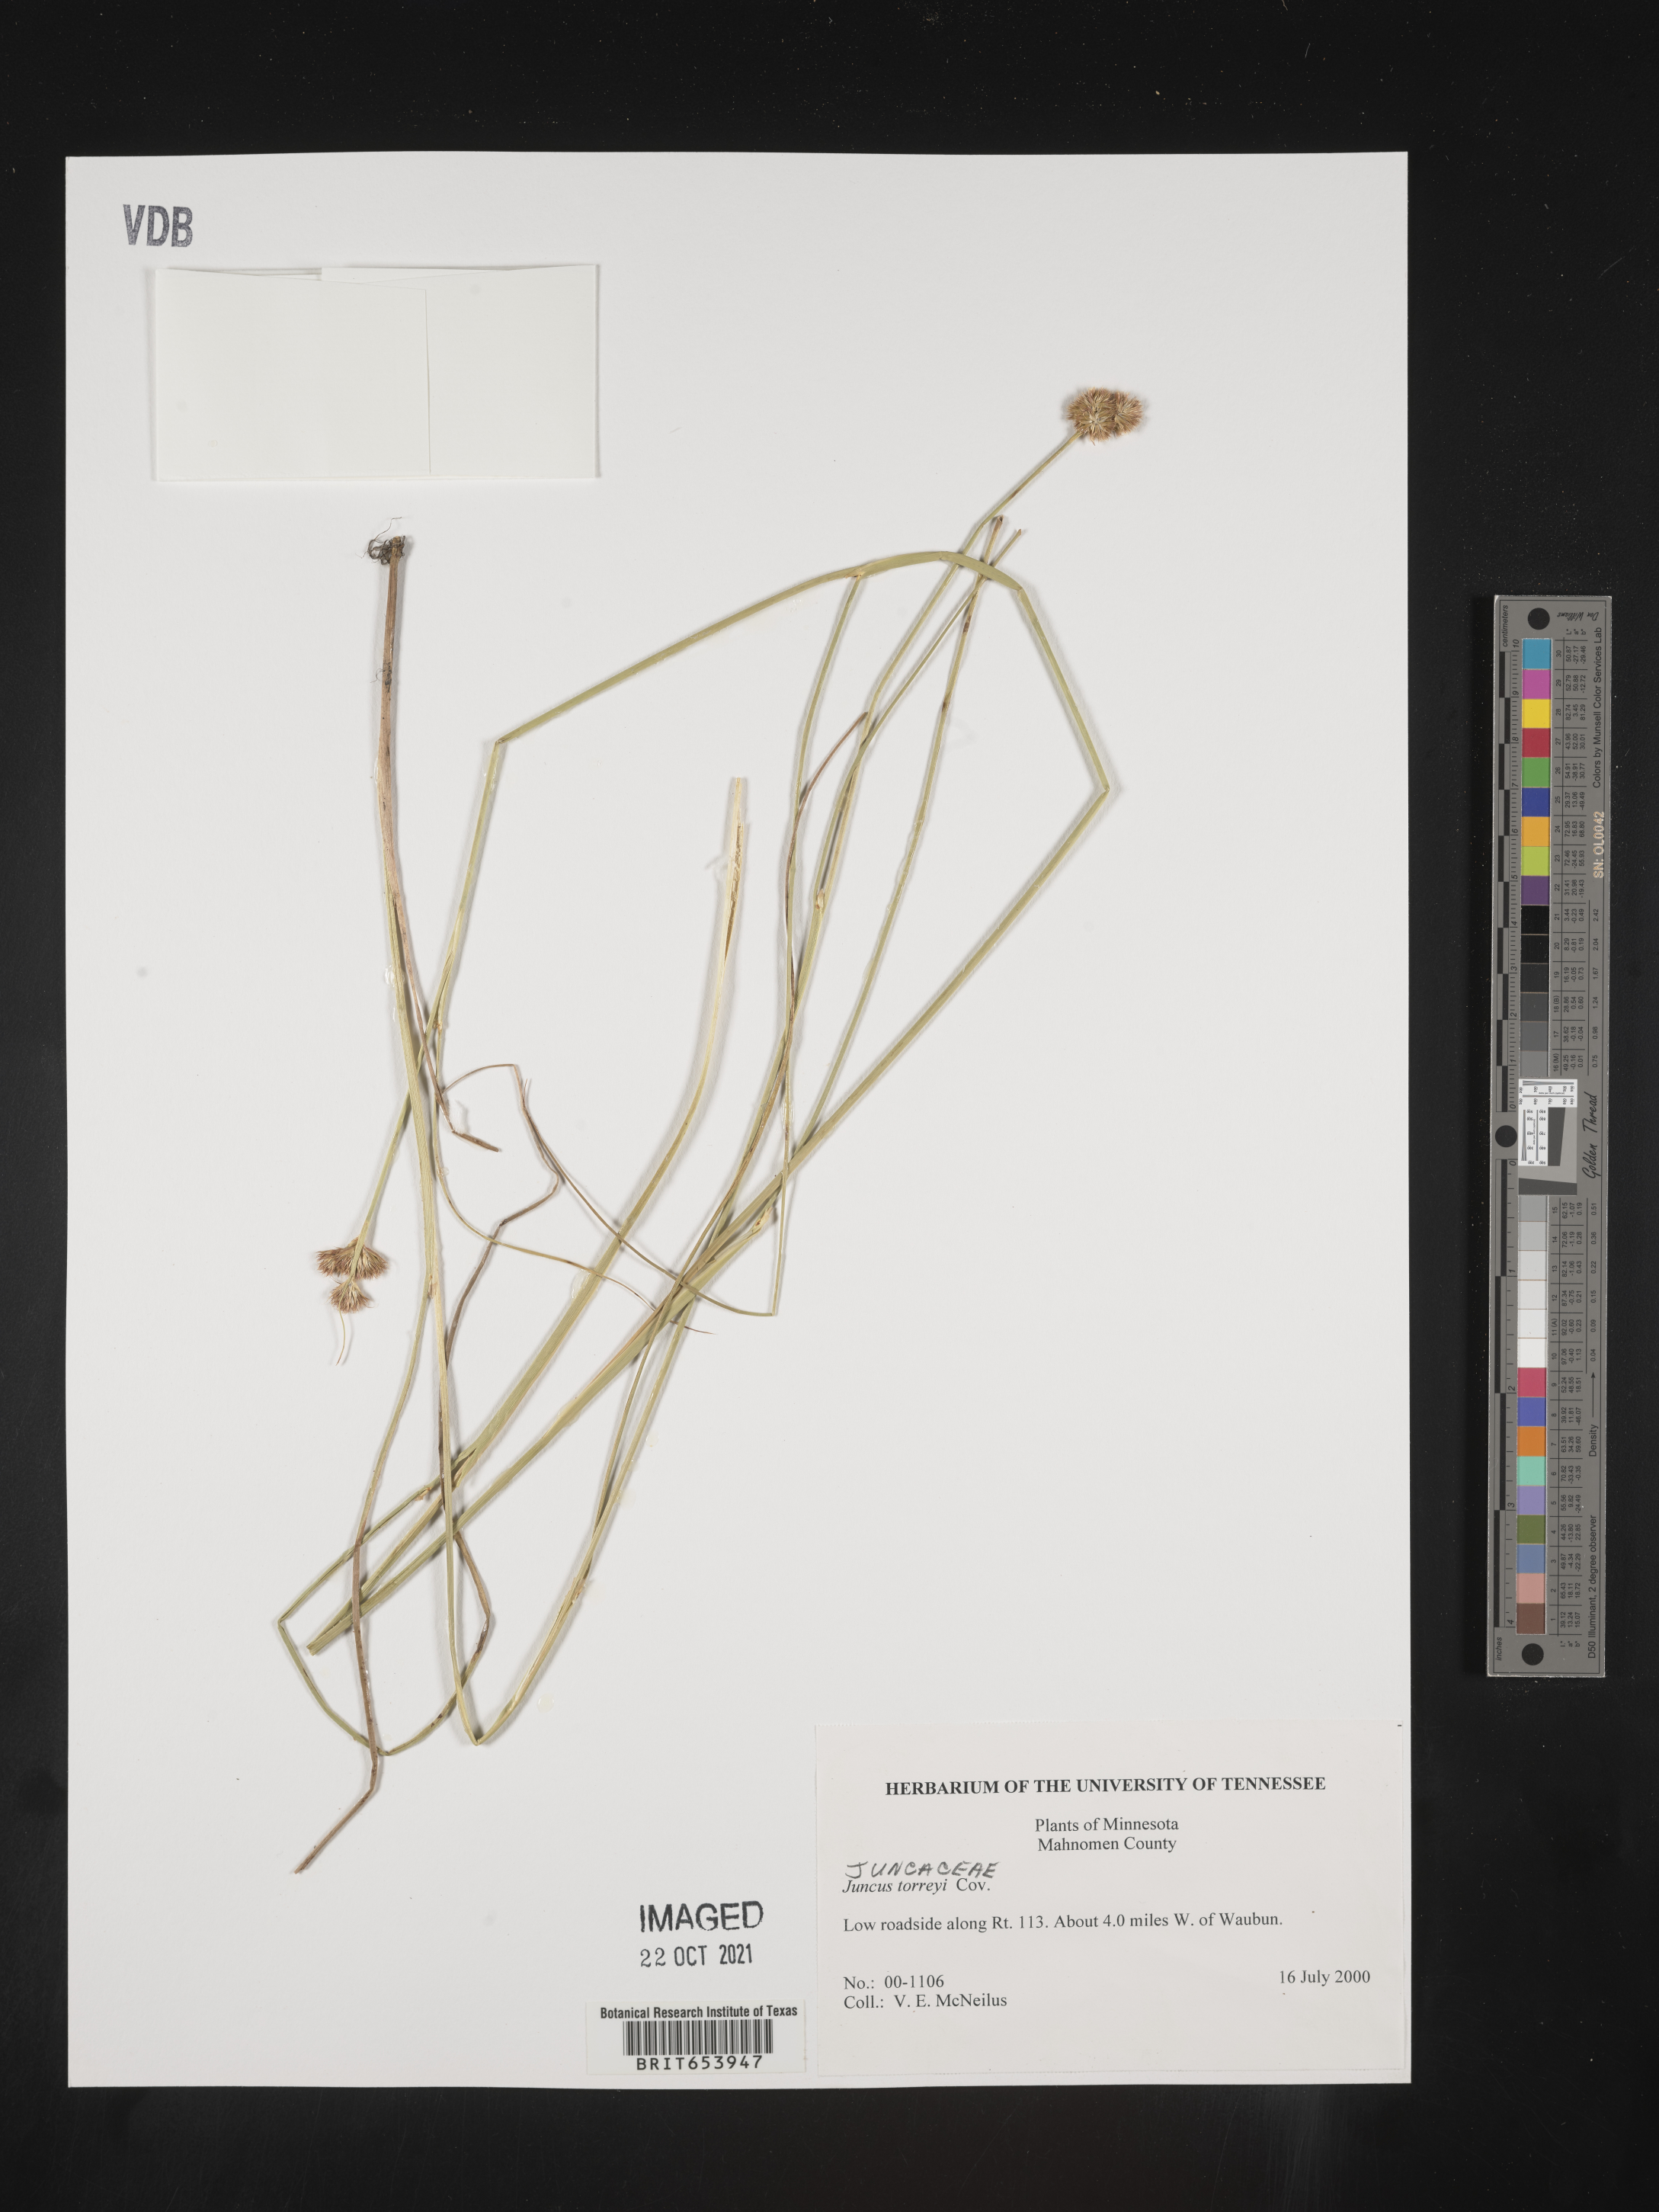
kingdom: Plantae
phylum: Tracheophyta
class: Liliopsida
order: Poales
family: Juncaceae
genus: Juncus
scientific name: Juncus torreyi
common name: Torrey's rush
